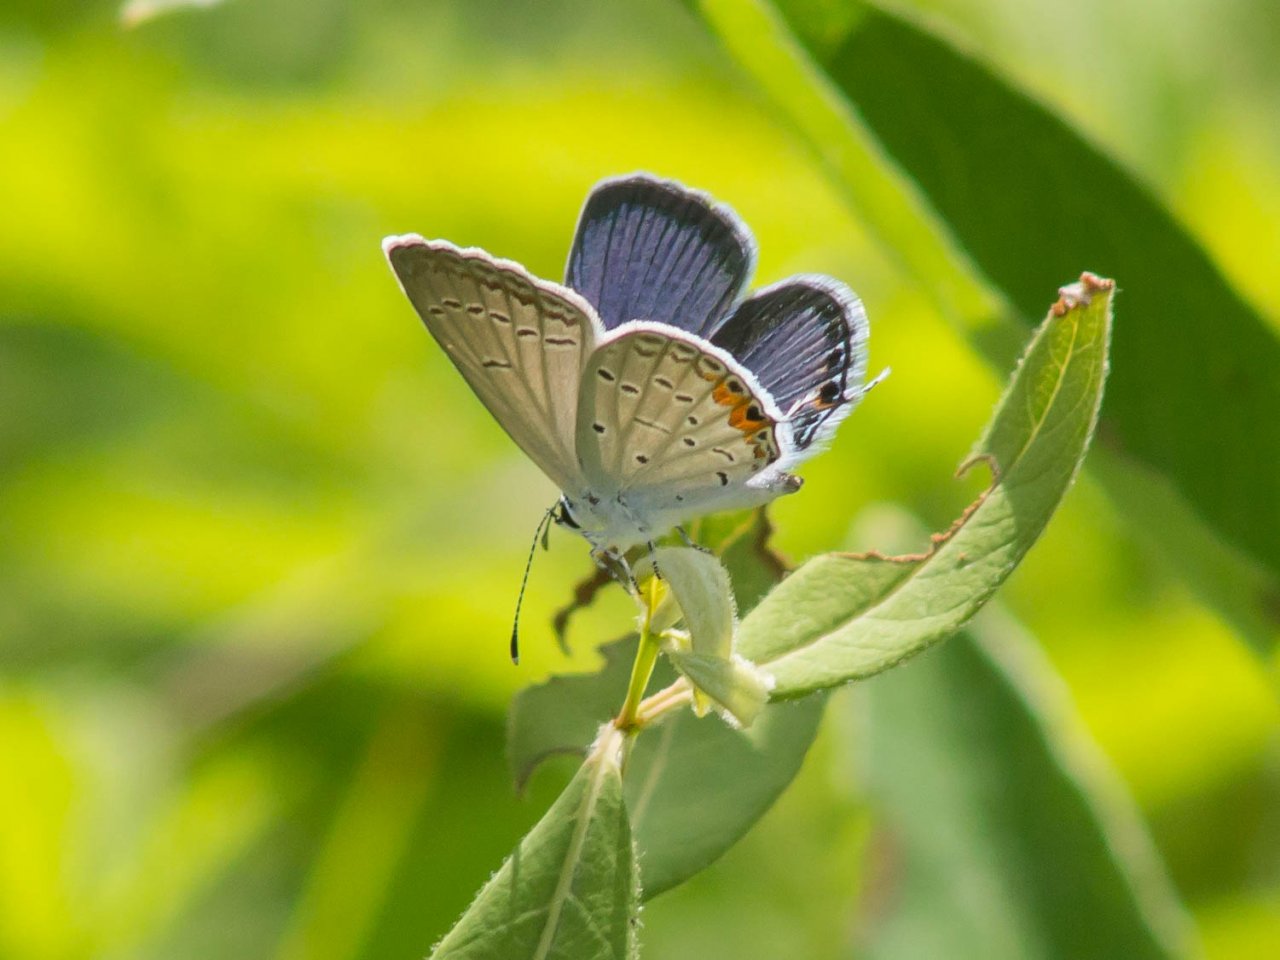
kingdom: Animalia
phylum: Arthropoda
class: Insecta
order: Lepidoptera
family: Lycaenidae
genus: Elkalyce
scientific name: Elkalyce comyntas
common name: Eastern Tailed-Blue
